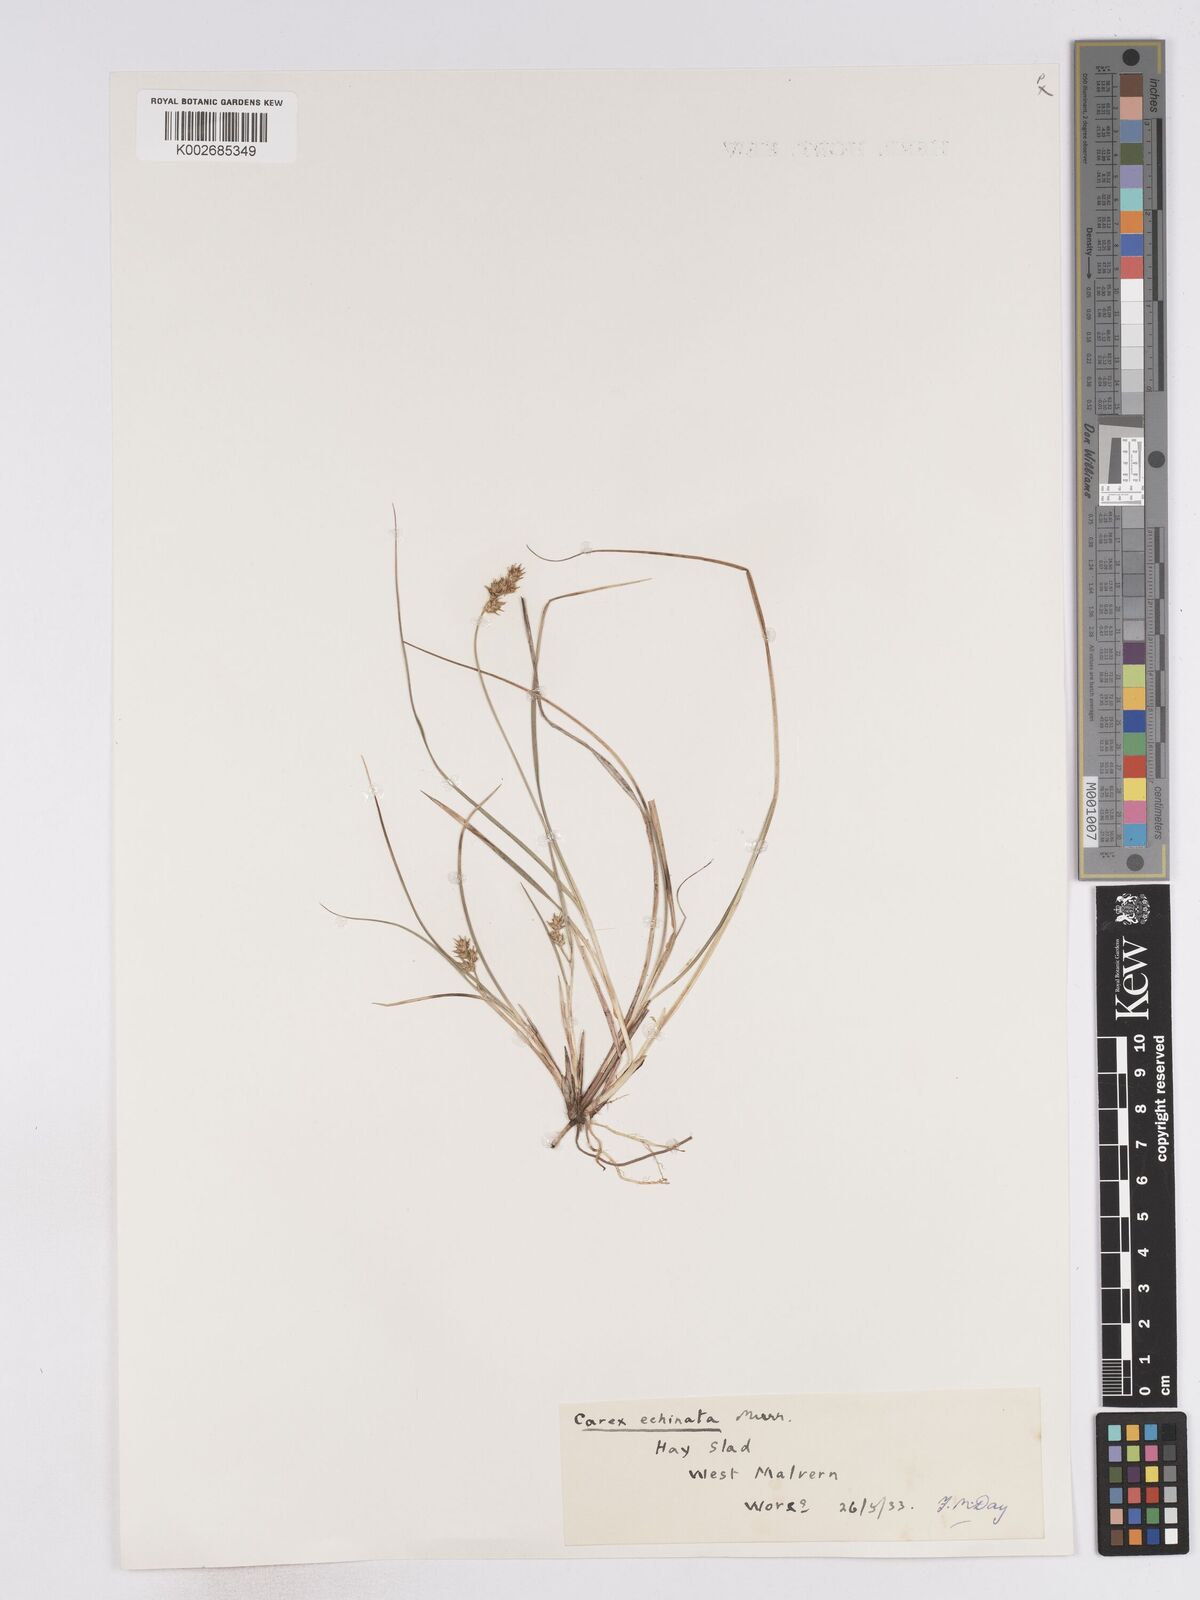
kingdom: Plantae
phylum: Tracheophyta
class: Liliopsida
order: Poales
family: Cyperaceae
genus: Carex
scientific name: Carex echinata
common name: Star sedge
